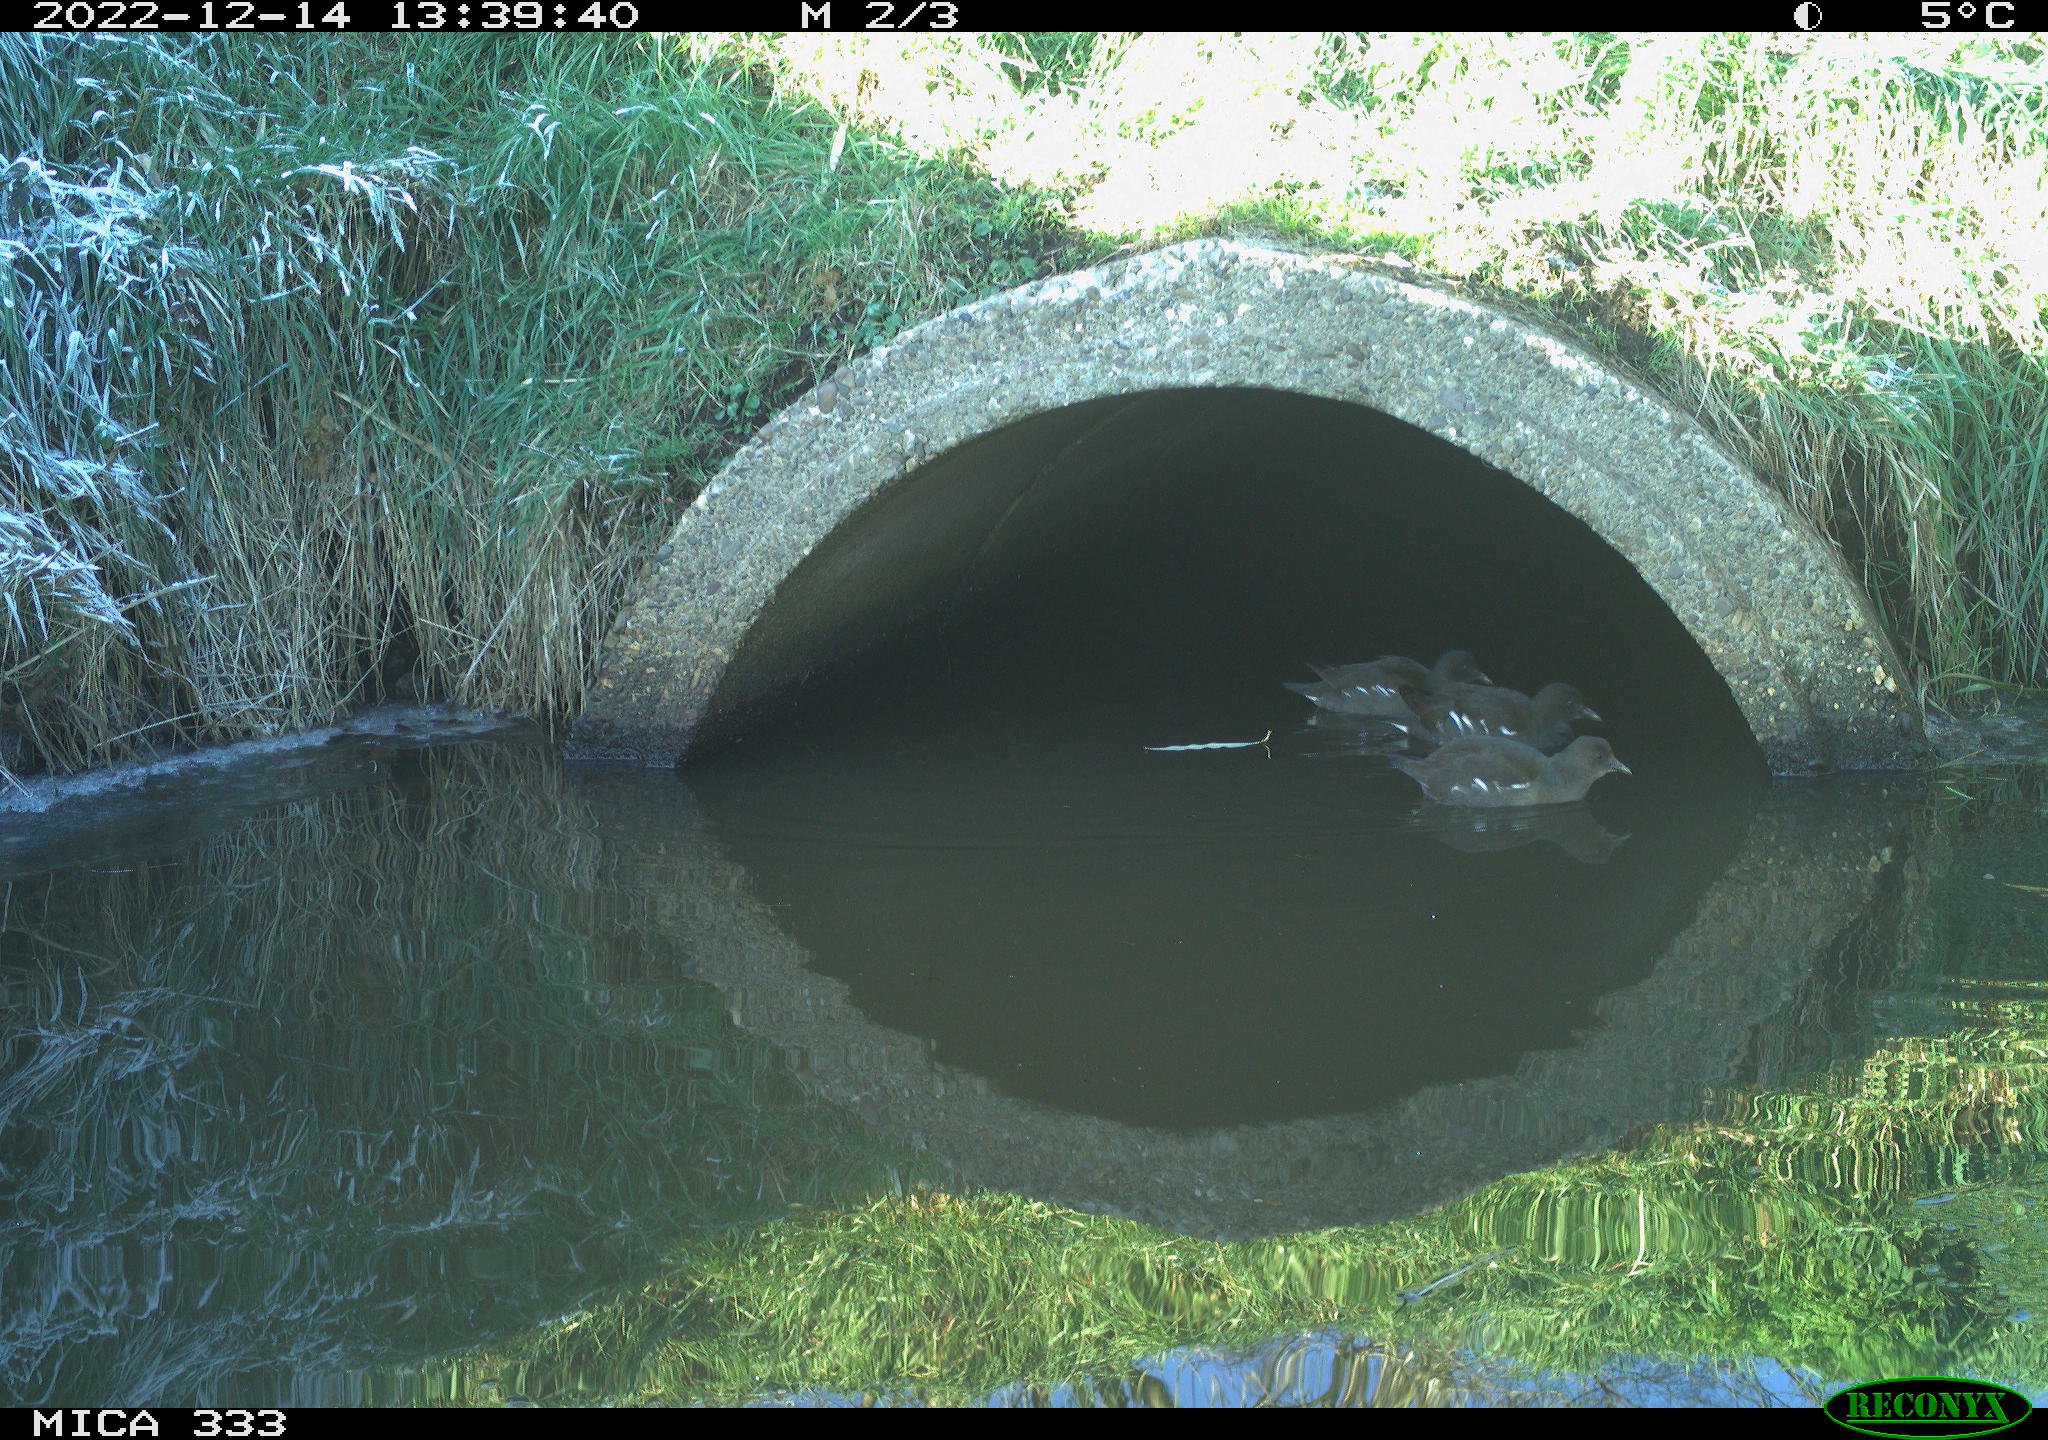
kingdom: Animalia
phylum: Chordata
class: Aves
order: Gruiformes
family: Rallidae
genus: Gallinula
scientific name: Gallinula chloropus
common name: Common moorhen
